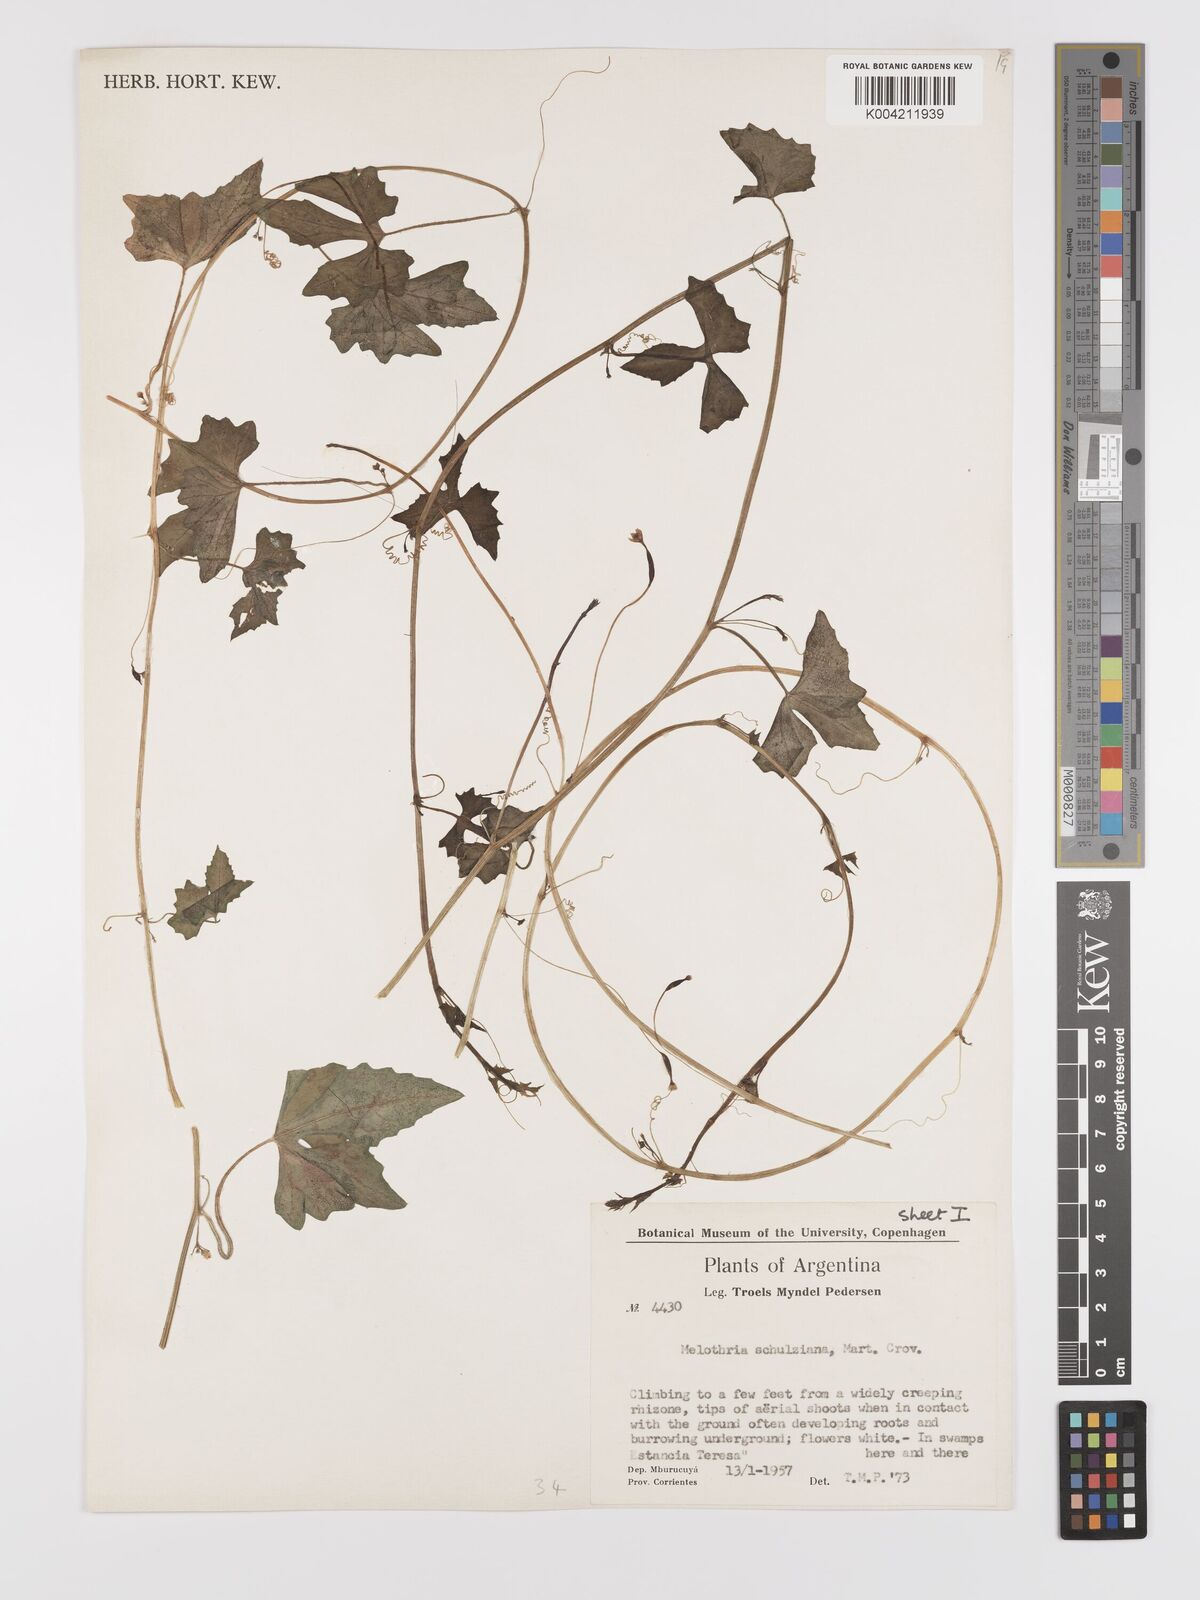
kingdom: Plantae
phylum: Tracheophyta
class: Magnoliopsida
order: Cucurbitales
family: Cucurbitaceae
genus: Melothria
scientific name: Melothria schulziana
